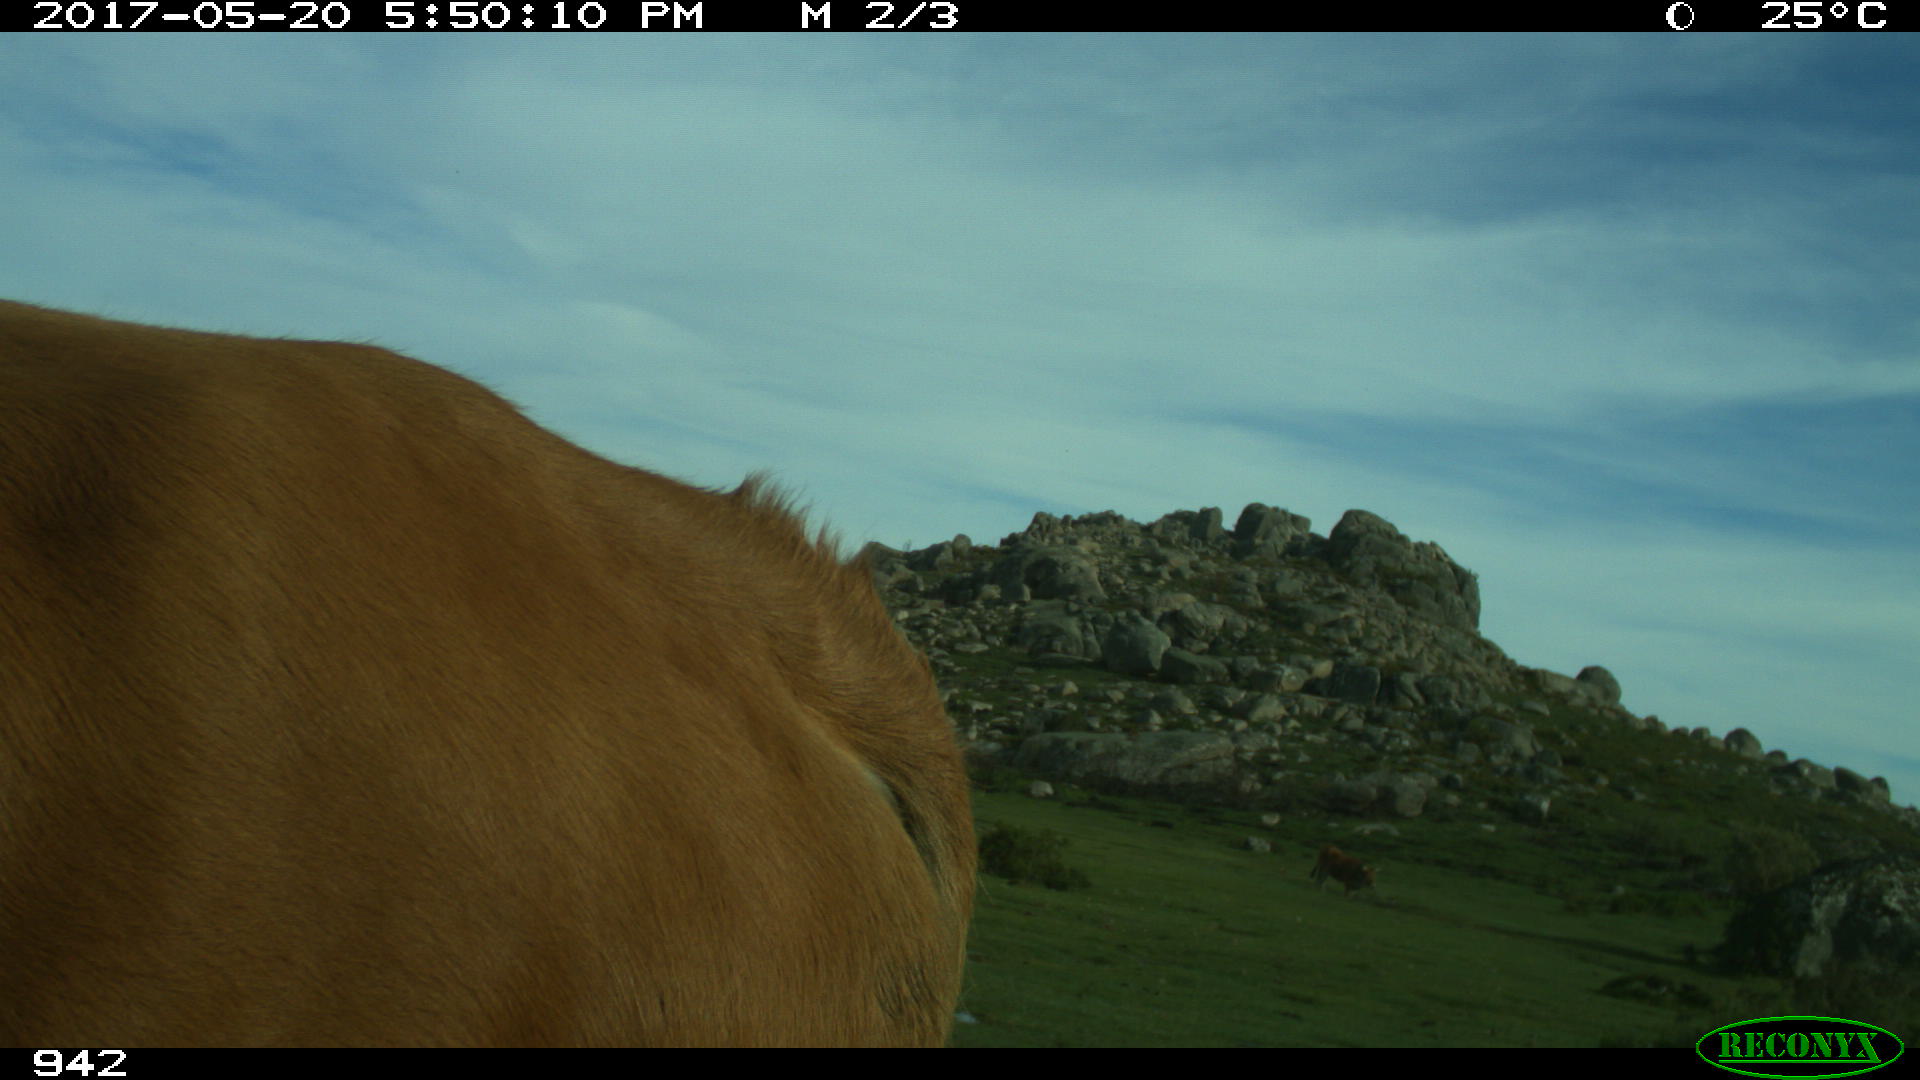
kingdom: Animalia
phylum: Chordata
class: Mammalia
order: Artiodactyla
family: Bovidae
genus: Bos
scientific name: Bos taurus
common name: Domesticated cattle
